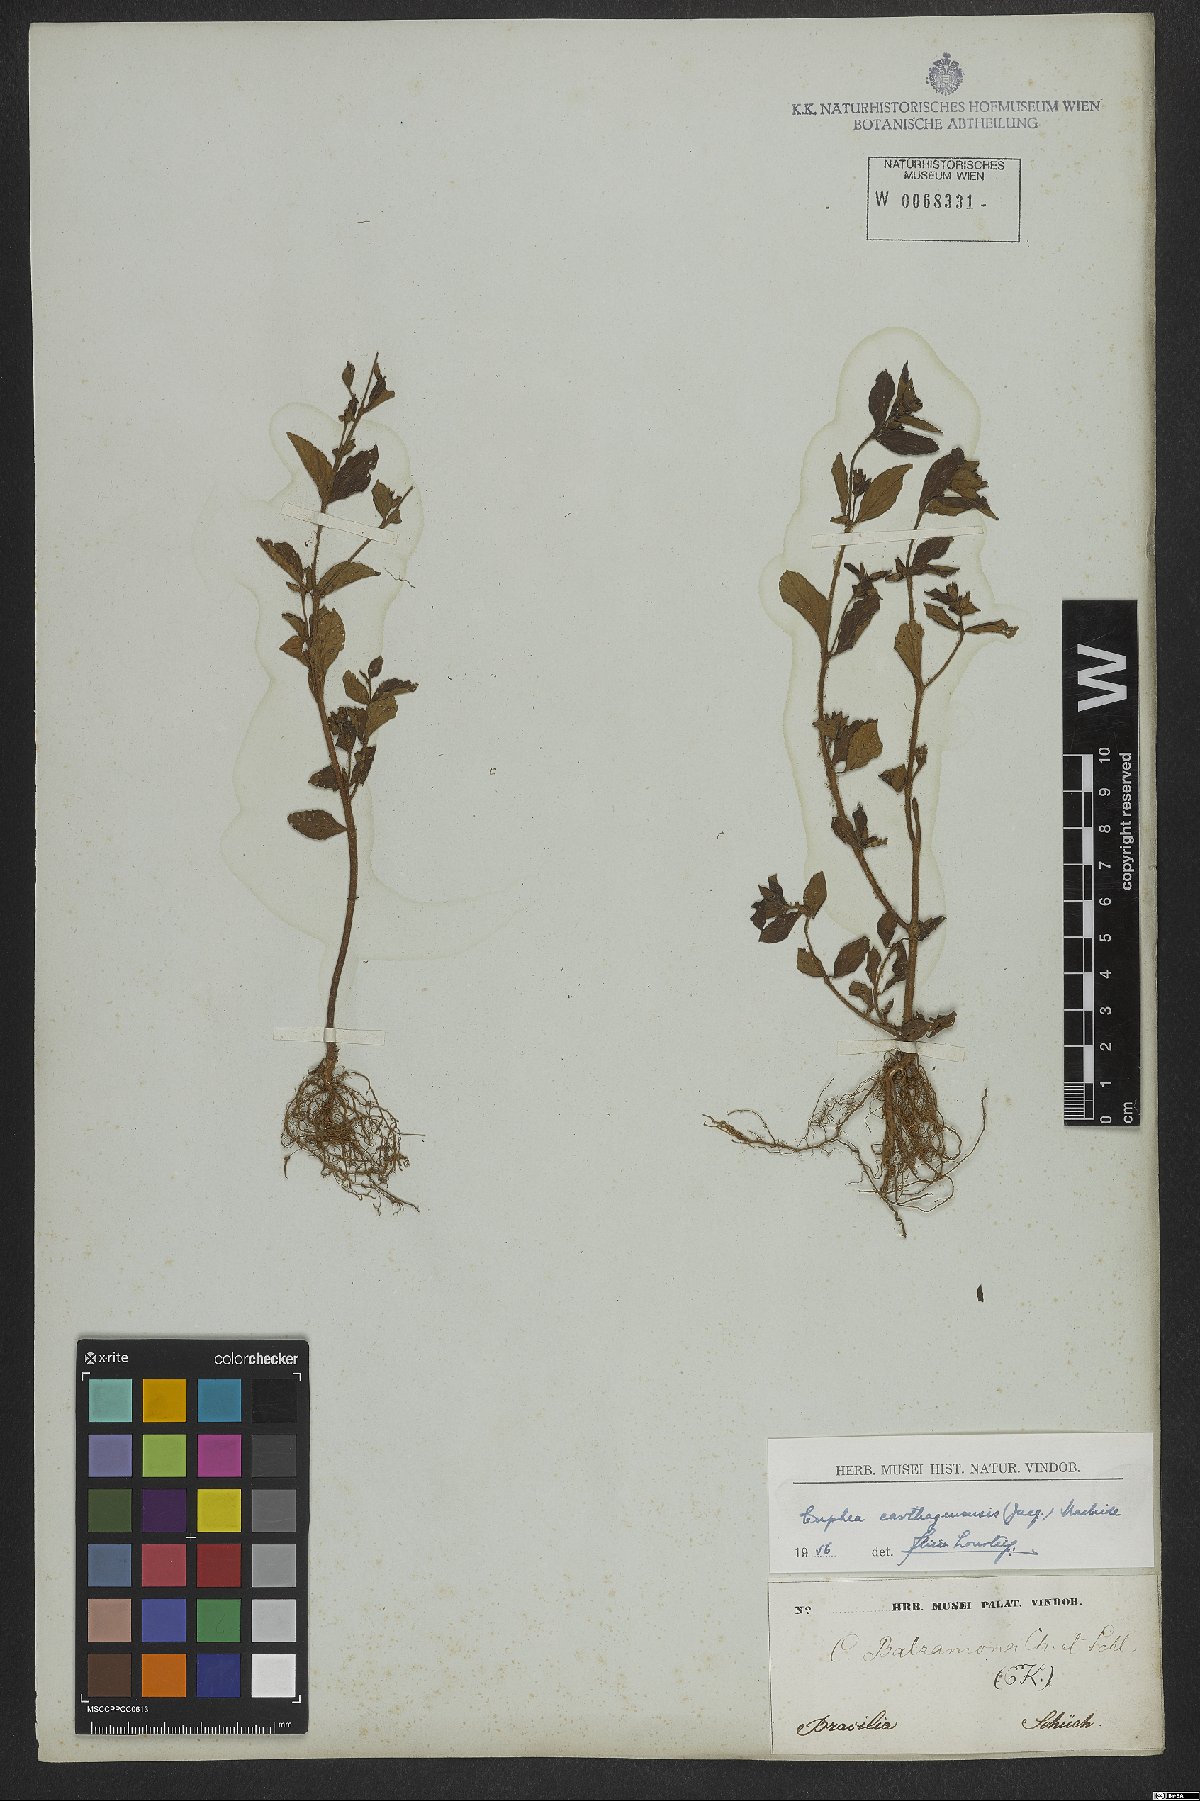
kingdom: Plantae
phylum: Tracheophyta
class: Magnoliopsida
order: Myrtales
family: Lythraceae
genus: Cuphea
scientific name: Cuphea carthagenensis
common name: Colombian waxweed
